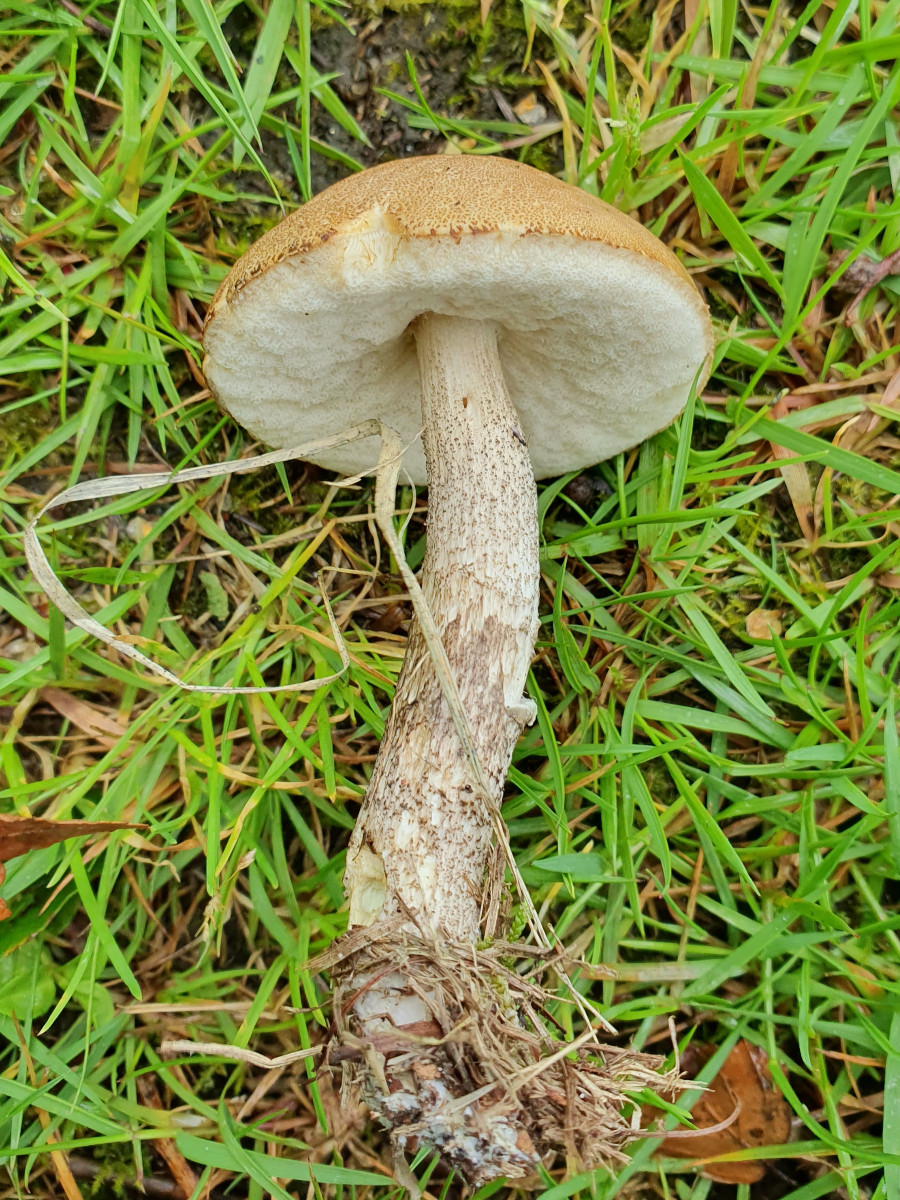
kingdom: Fungi
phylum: Basidiomycota
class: Agaricomycetes
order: Boletales
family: Boletaceae
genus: Leccinum
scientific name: Leccinum scabrum
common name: brun skælrørhat
